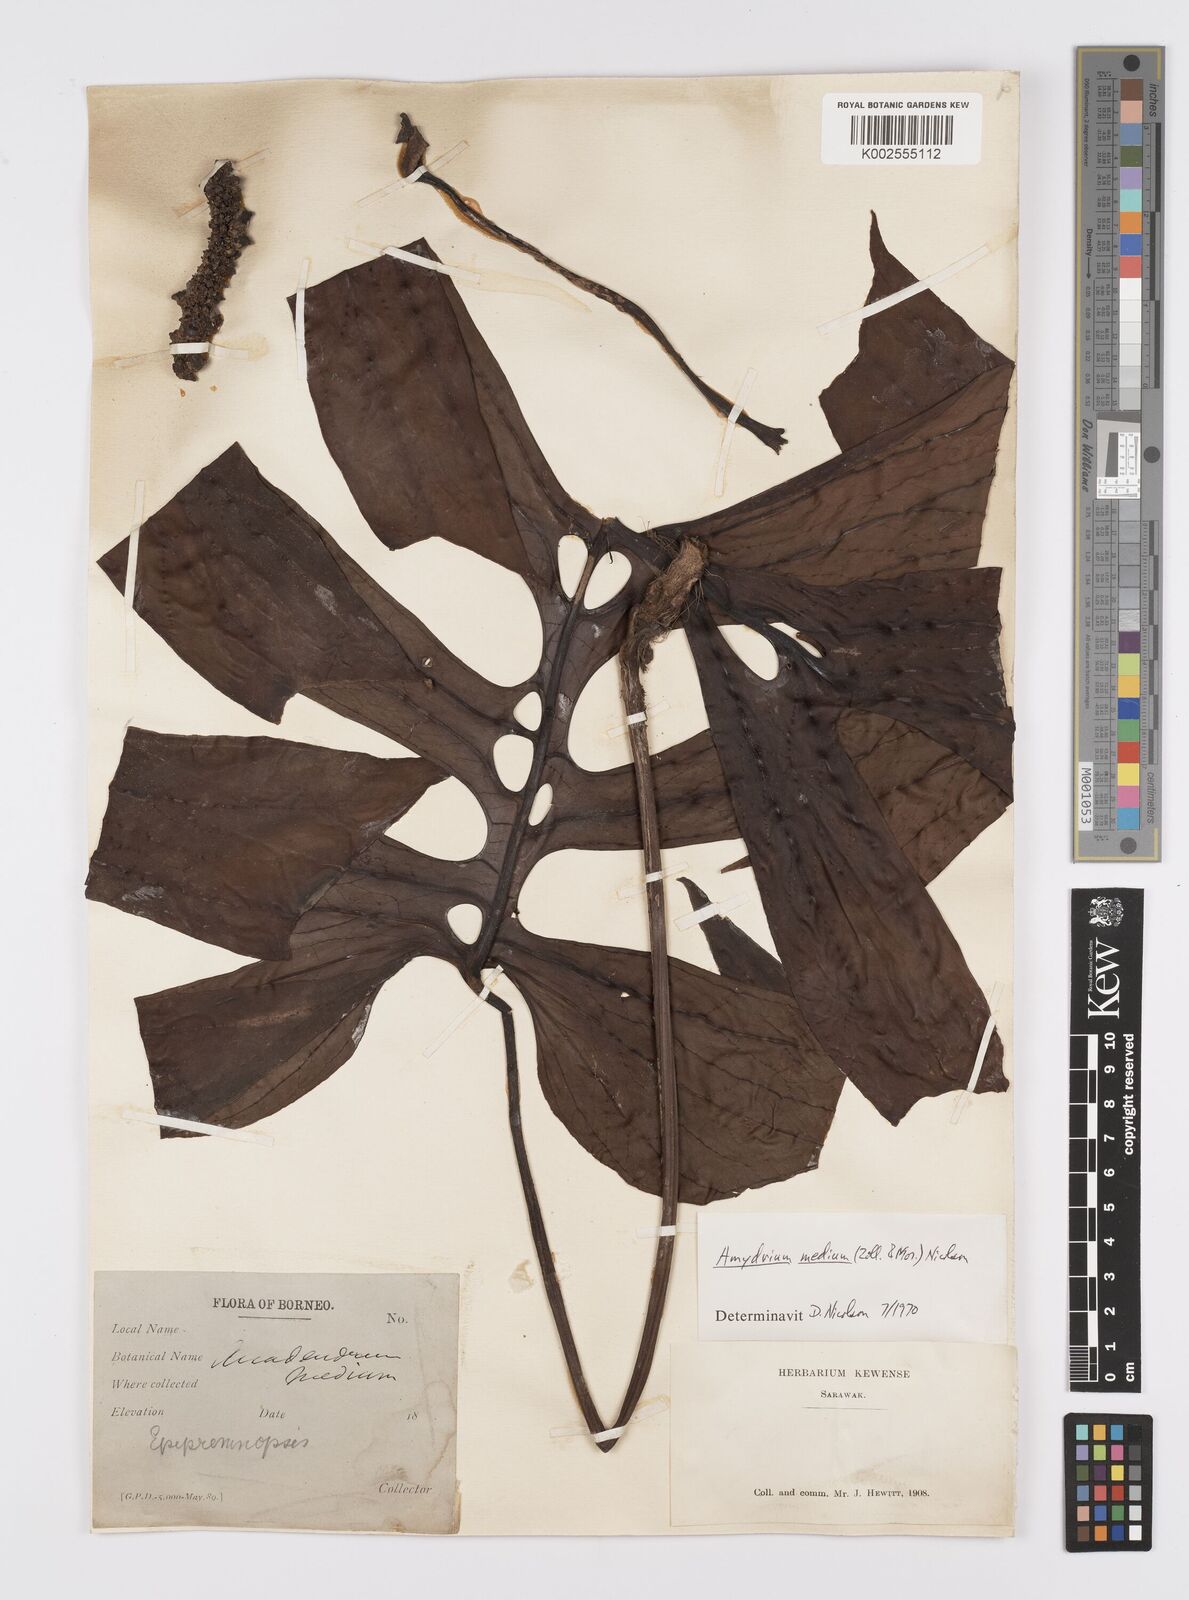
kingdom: Plantae
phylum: Tracheophyta
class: Liliopsida
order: Alismatales
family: Araceae
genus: Amydrium
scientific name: Amydrium medium
